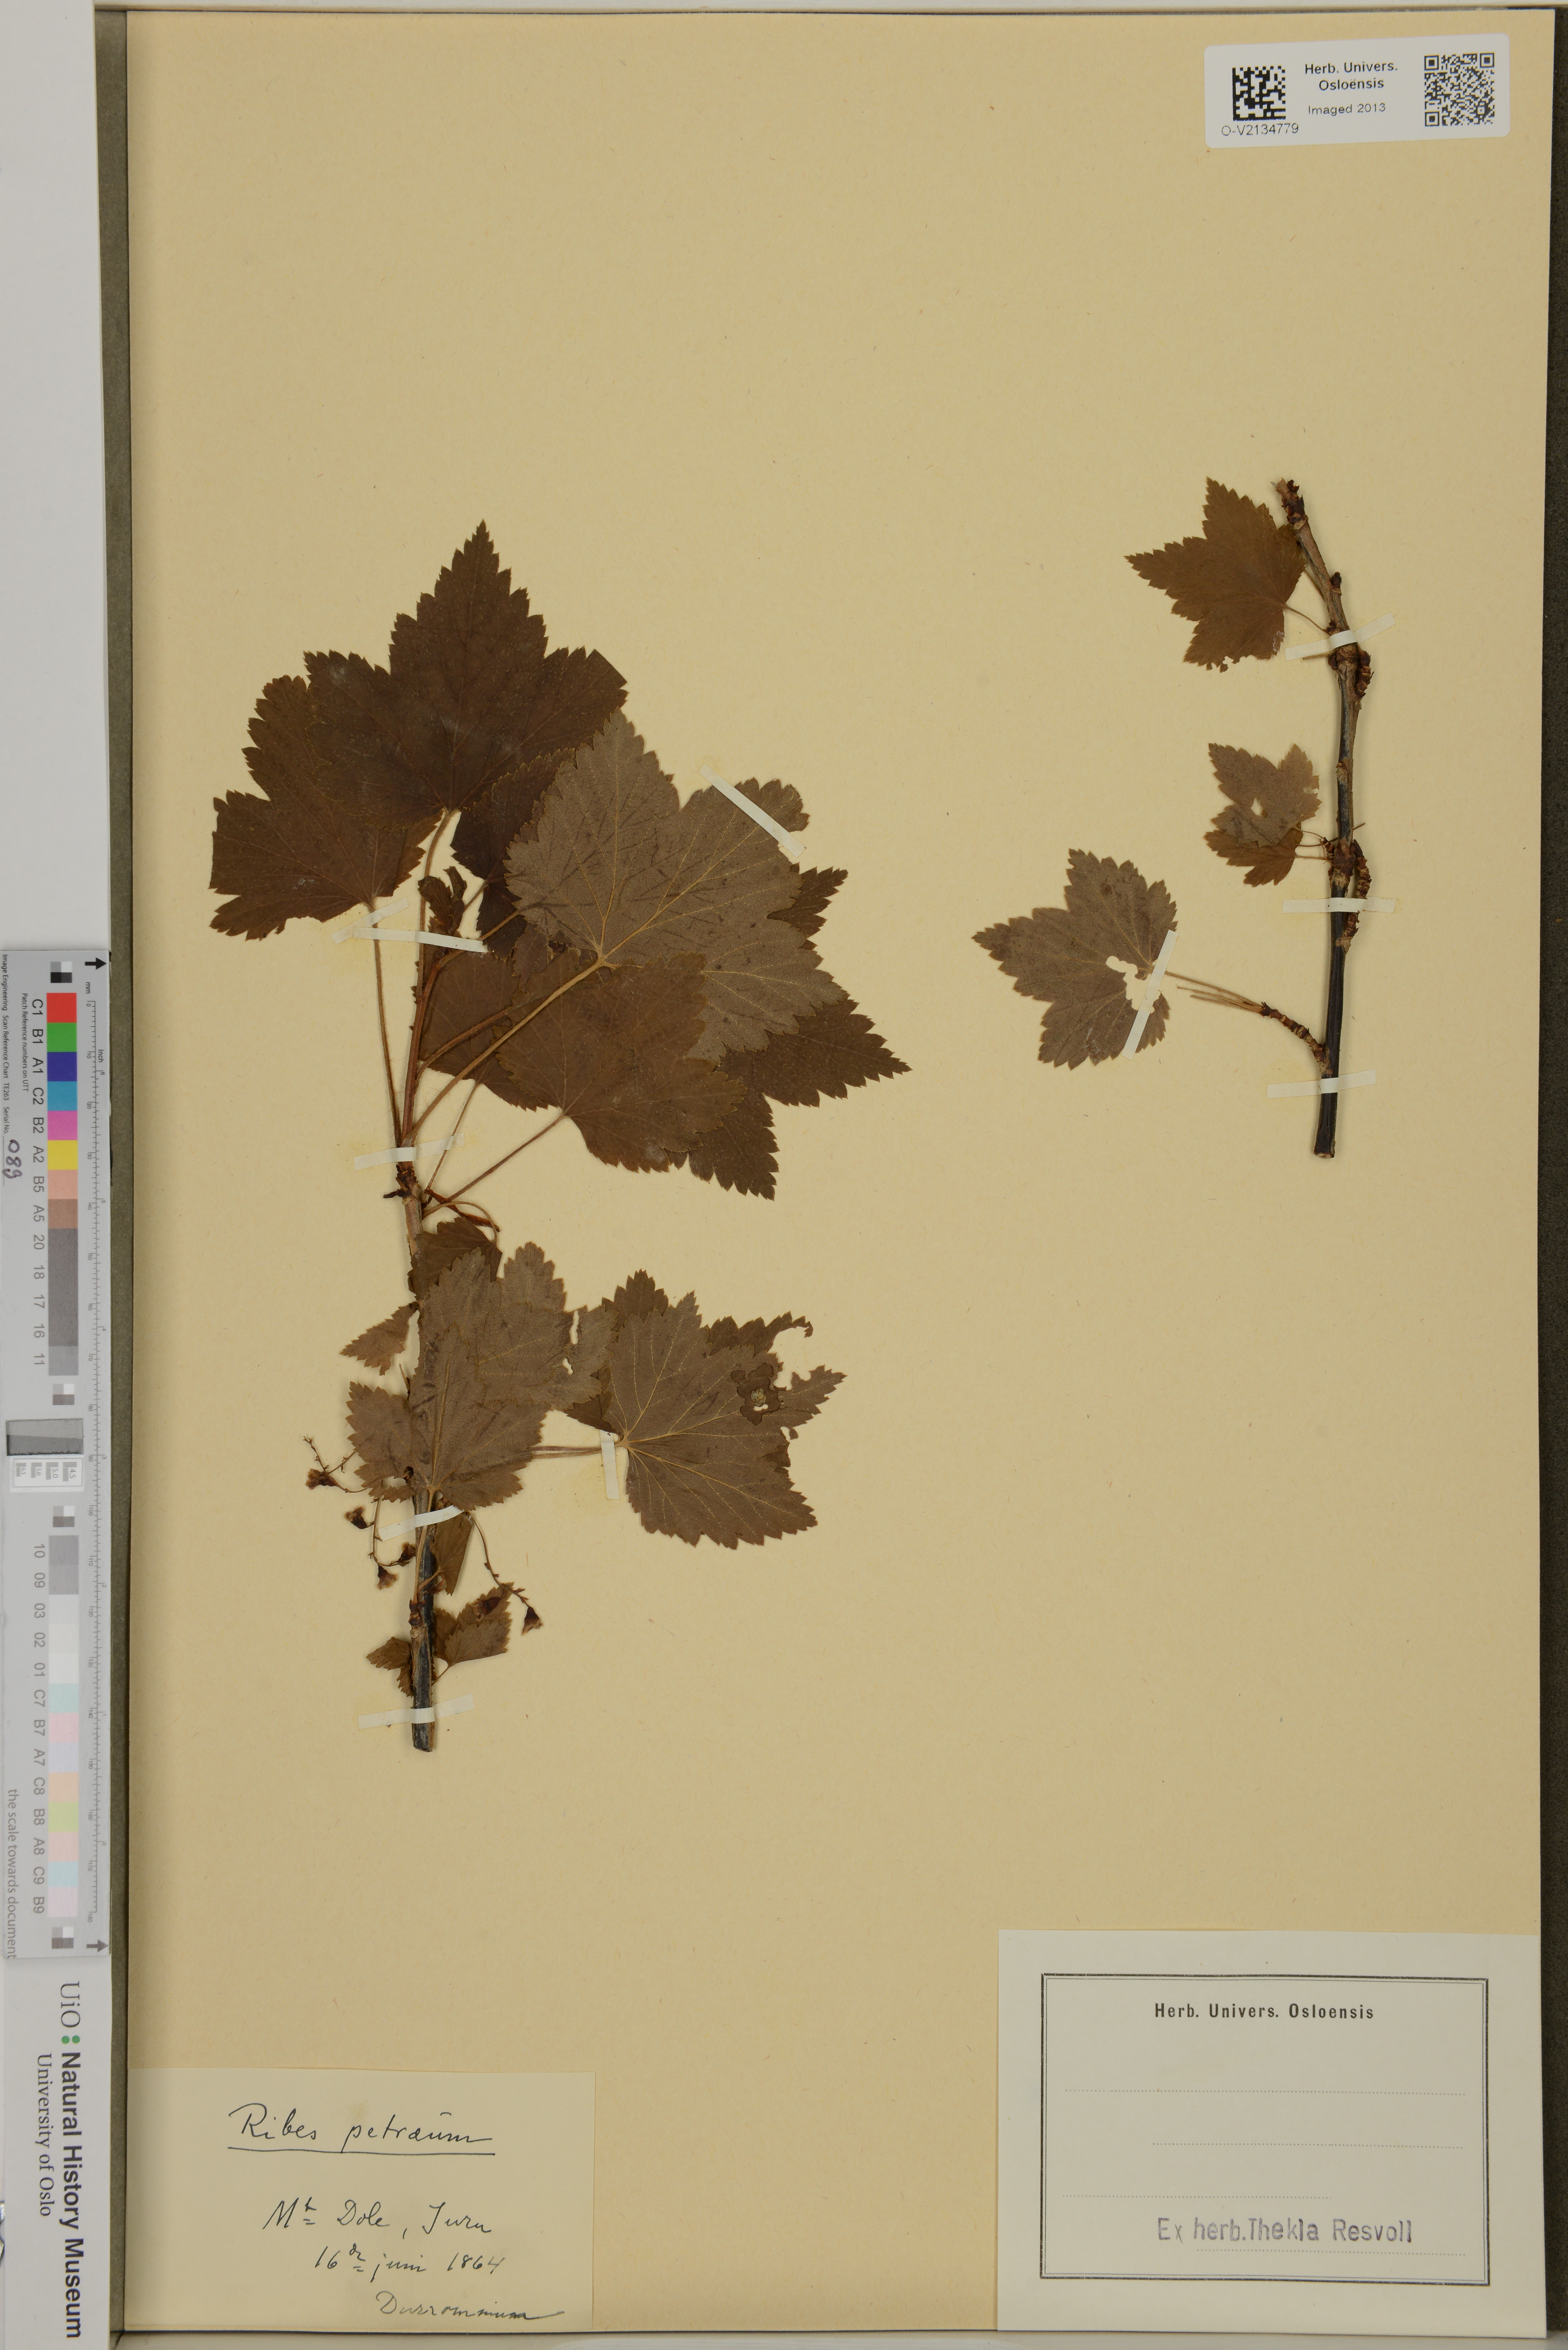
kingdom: Plantae
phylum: Tracheophyta
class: Magnoliopsida
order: Saxifragales
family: Grossulariaceae
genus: Ribes
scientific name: Ribes petraeum
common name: Rock currant
